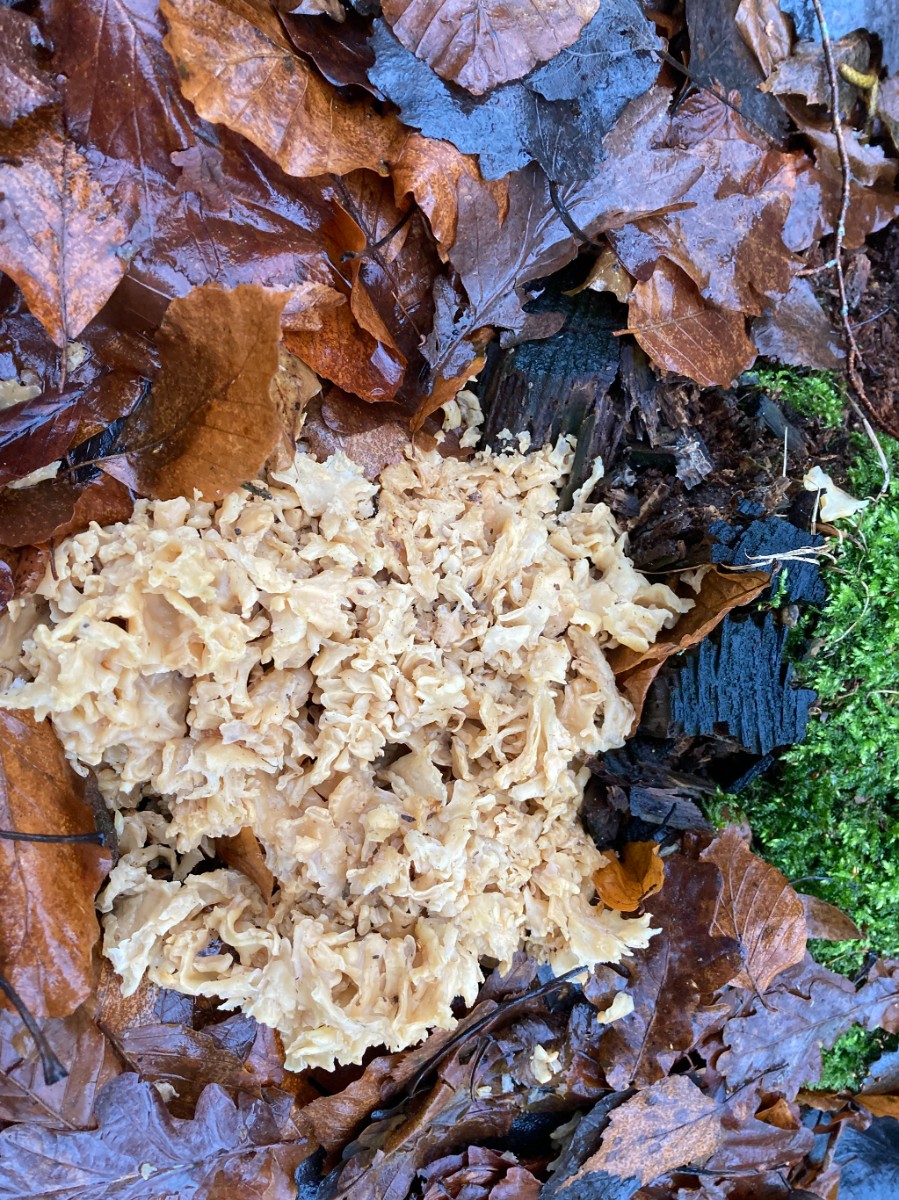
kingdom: Fungi
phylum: Basidiomycota
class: Agaricomycetes
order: Polyporales
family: Sparassidaceae
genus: Sparassis
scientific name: Sparassis crispa
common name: kruset blomkålssvamp
